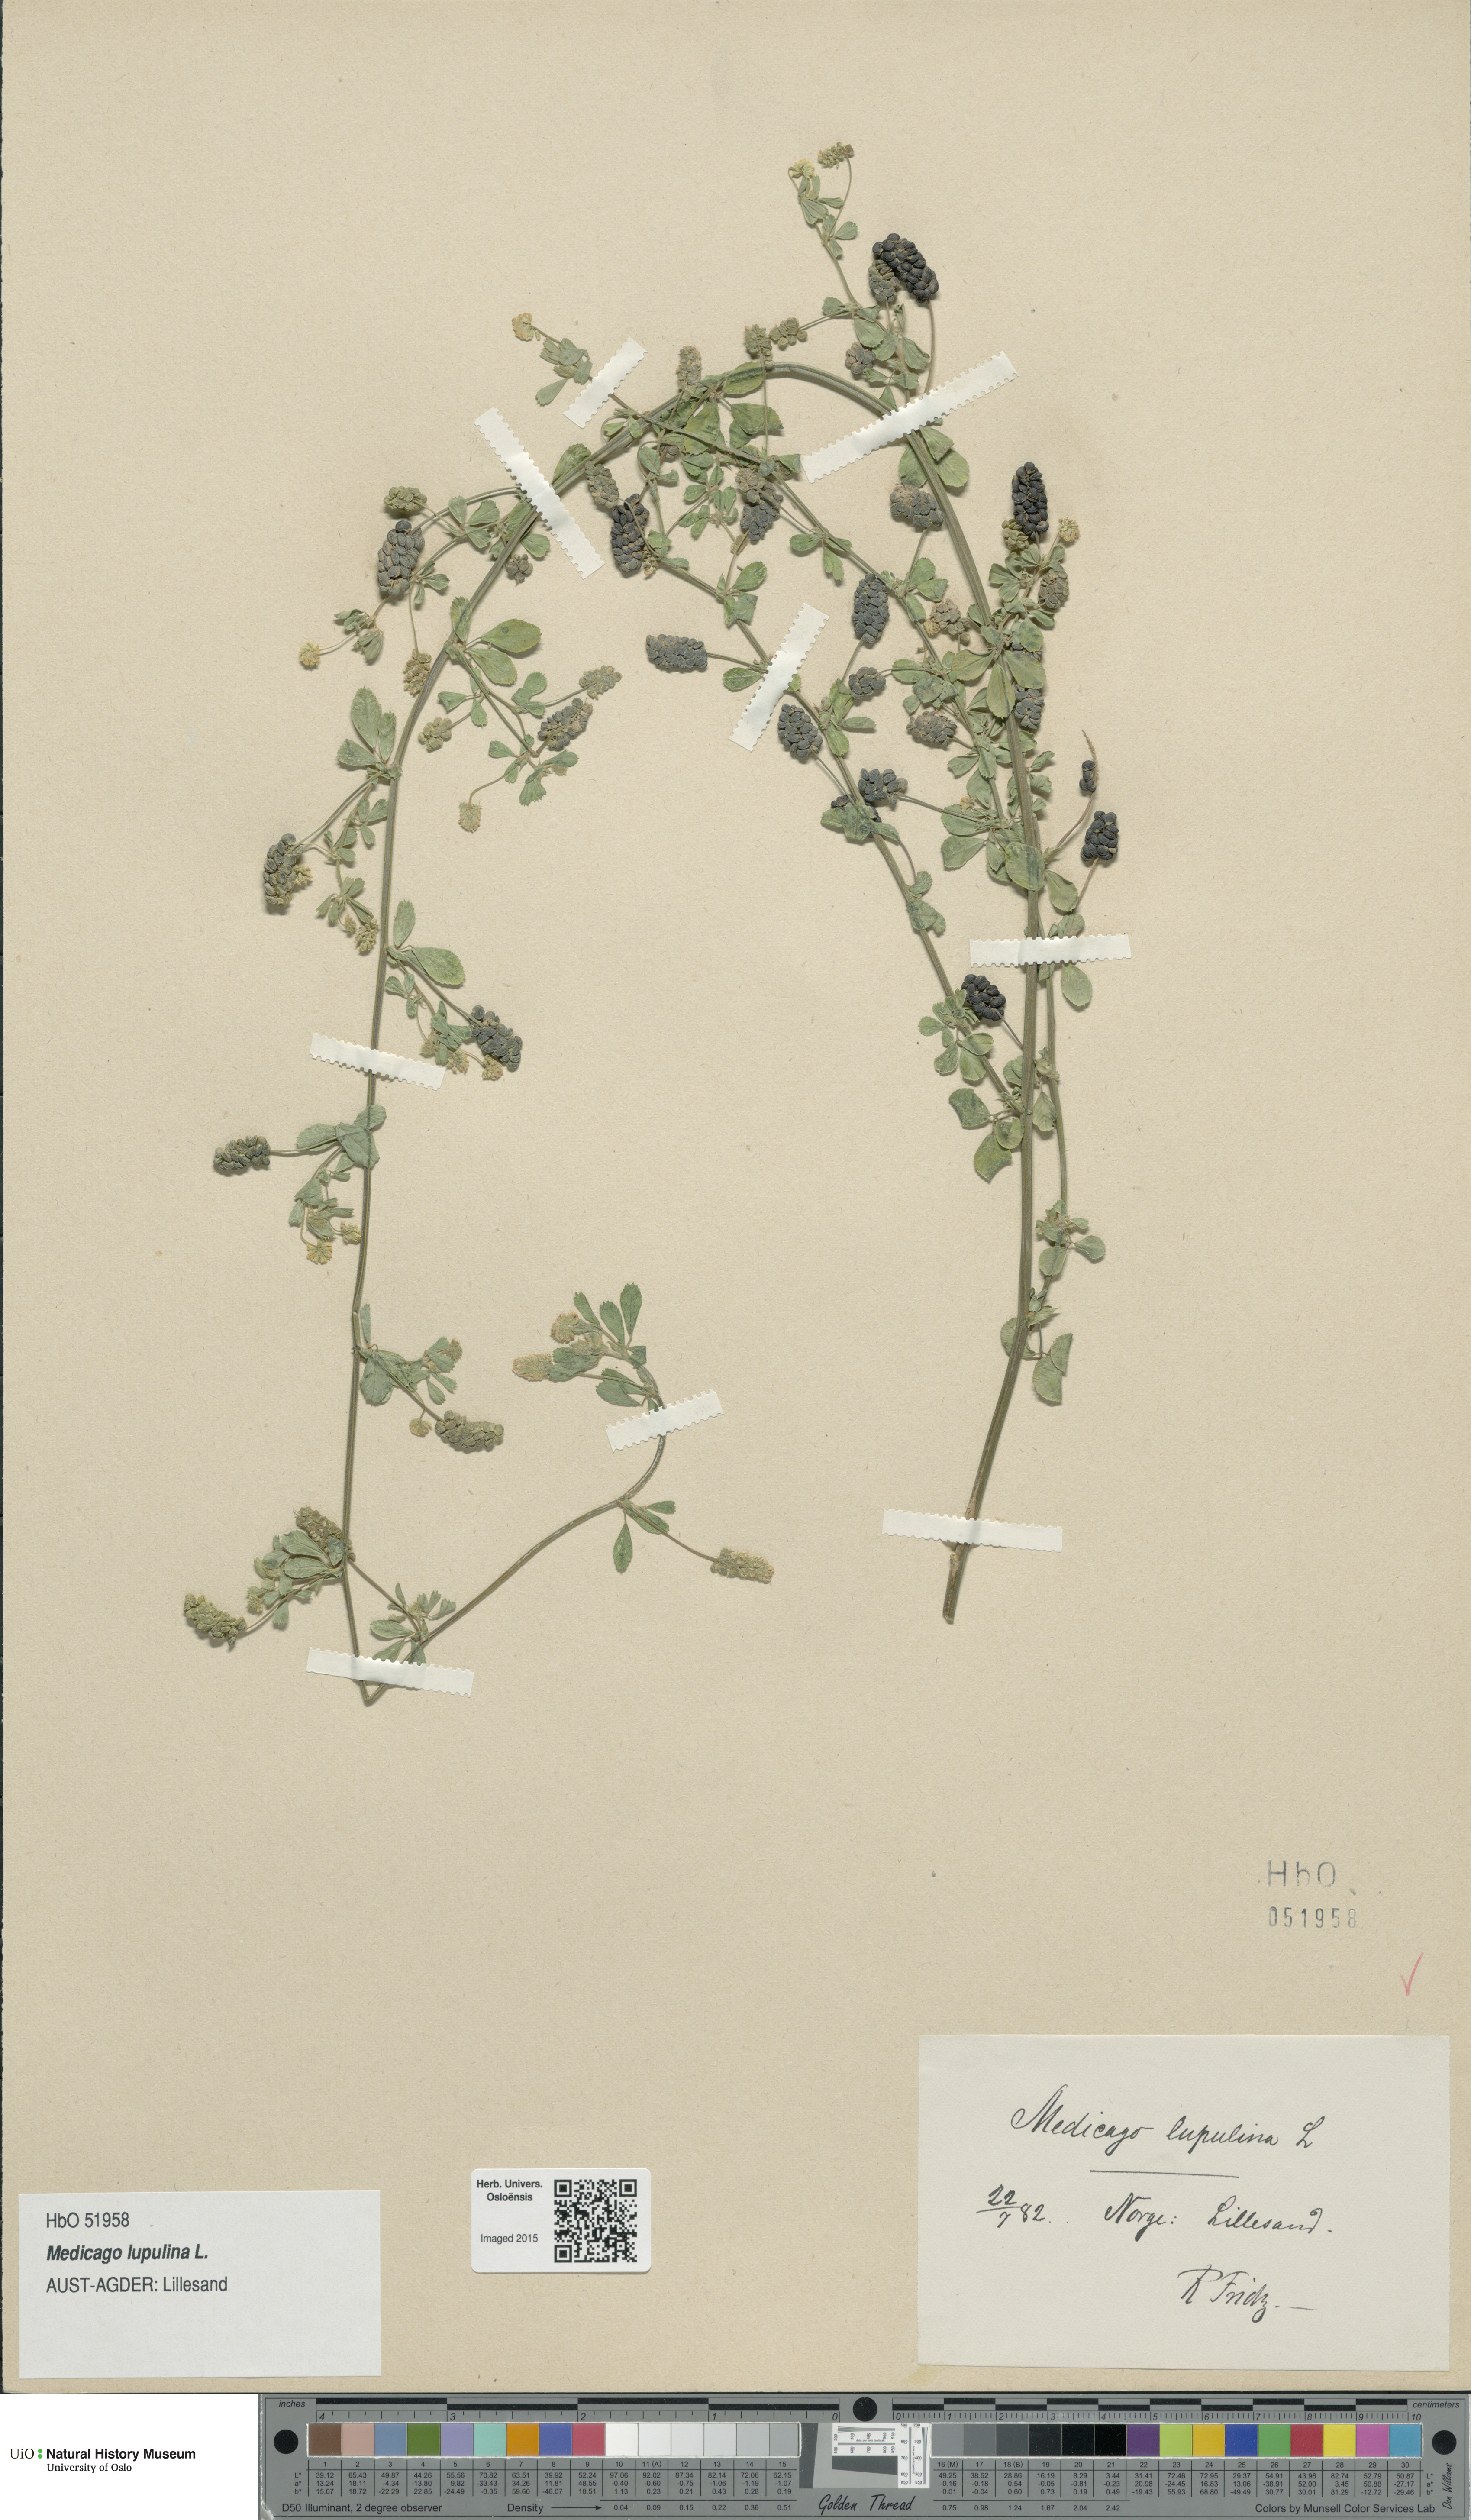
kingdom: Plantae
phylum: Tracheophyta
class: Magnoliopsida
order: Fabales
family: Fabaceae
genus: Medicago
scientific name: Medicago lupulina
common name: Black medick
